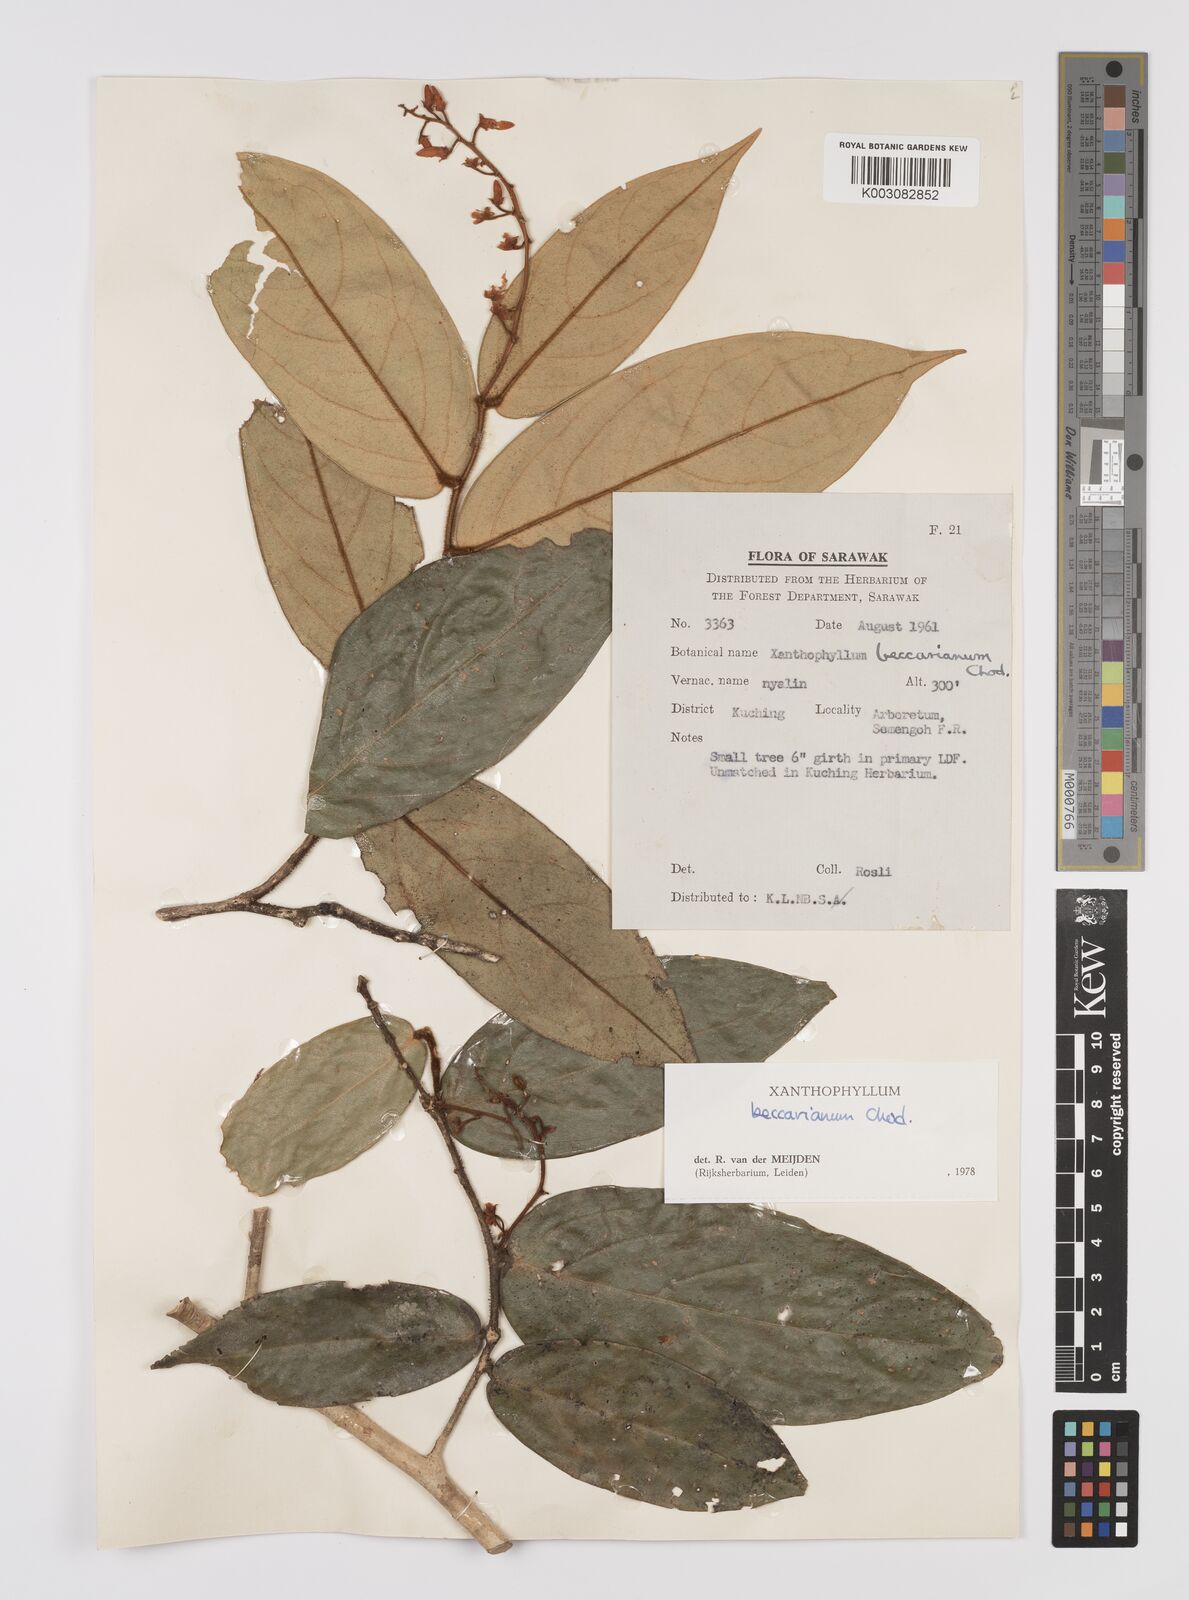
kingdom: Plantae
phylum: Tracheophyta
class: Magnoliopsida
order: Fabales
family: Polygalaceae
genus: Xanthophyllum
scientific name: Xanthophyllum beccarianum
